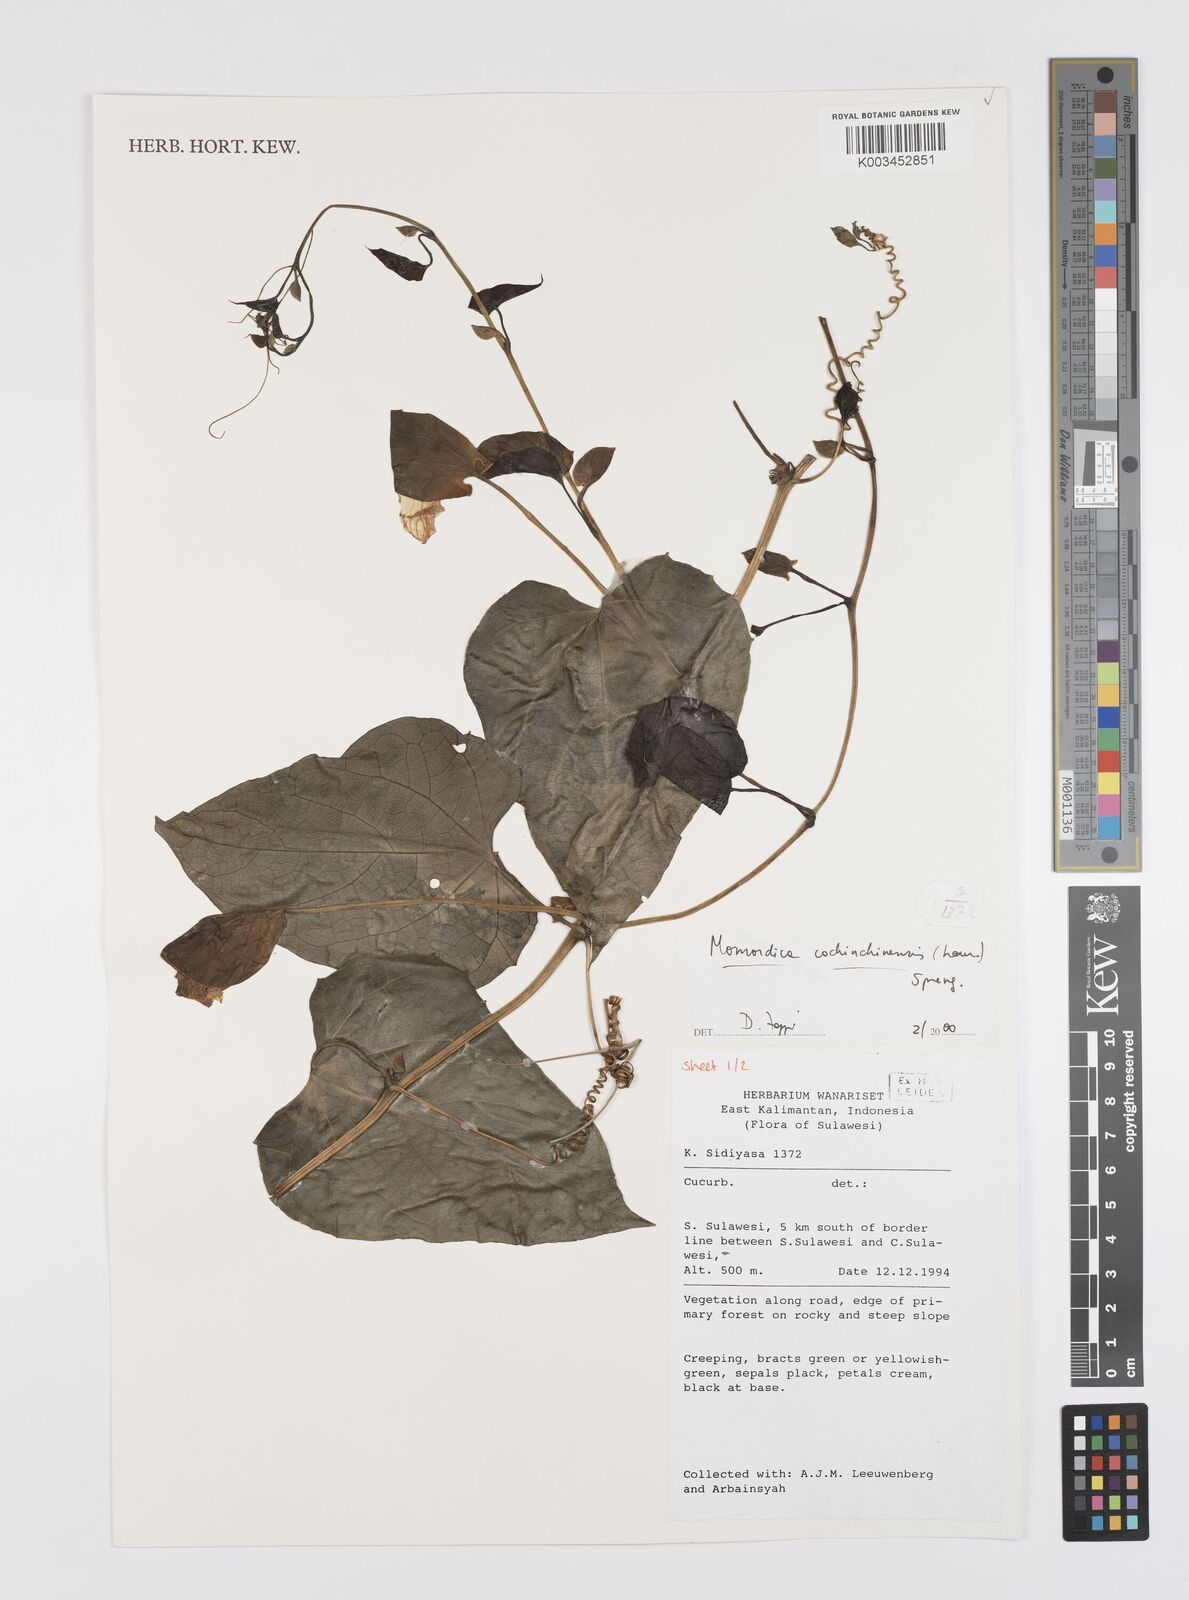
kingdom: Plantae
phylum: Tracheophyta
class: Magnoliopsida
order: Cucurbitales
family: Cucurbitaceae
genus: Momordica
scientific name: Momordica cochinchinensis
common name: Chinese bitter-cucumber
